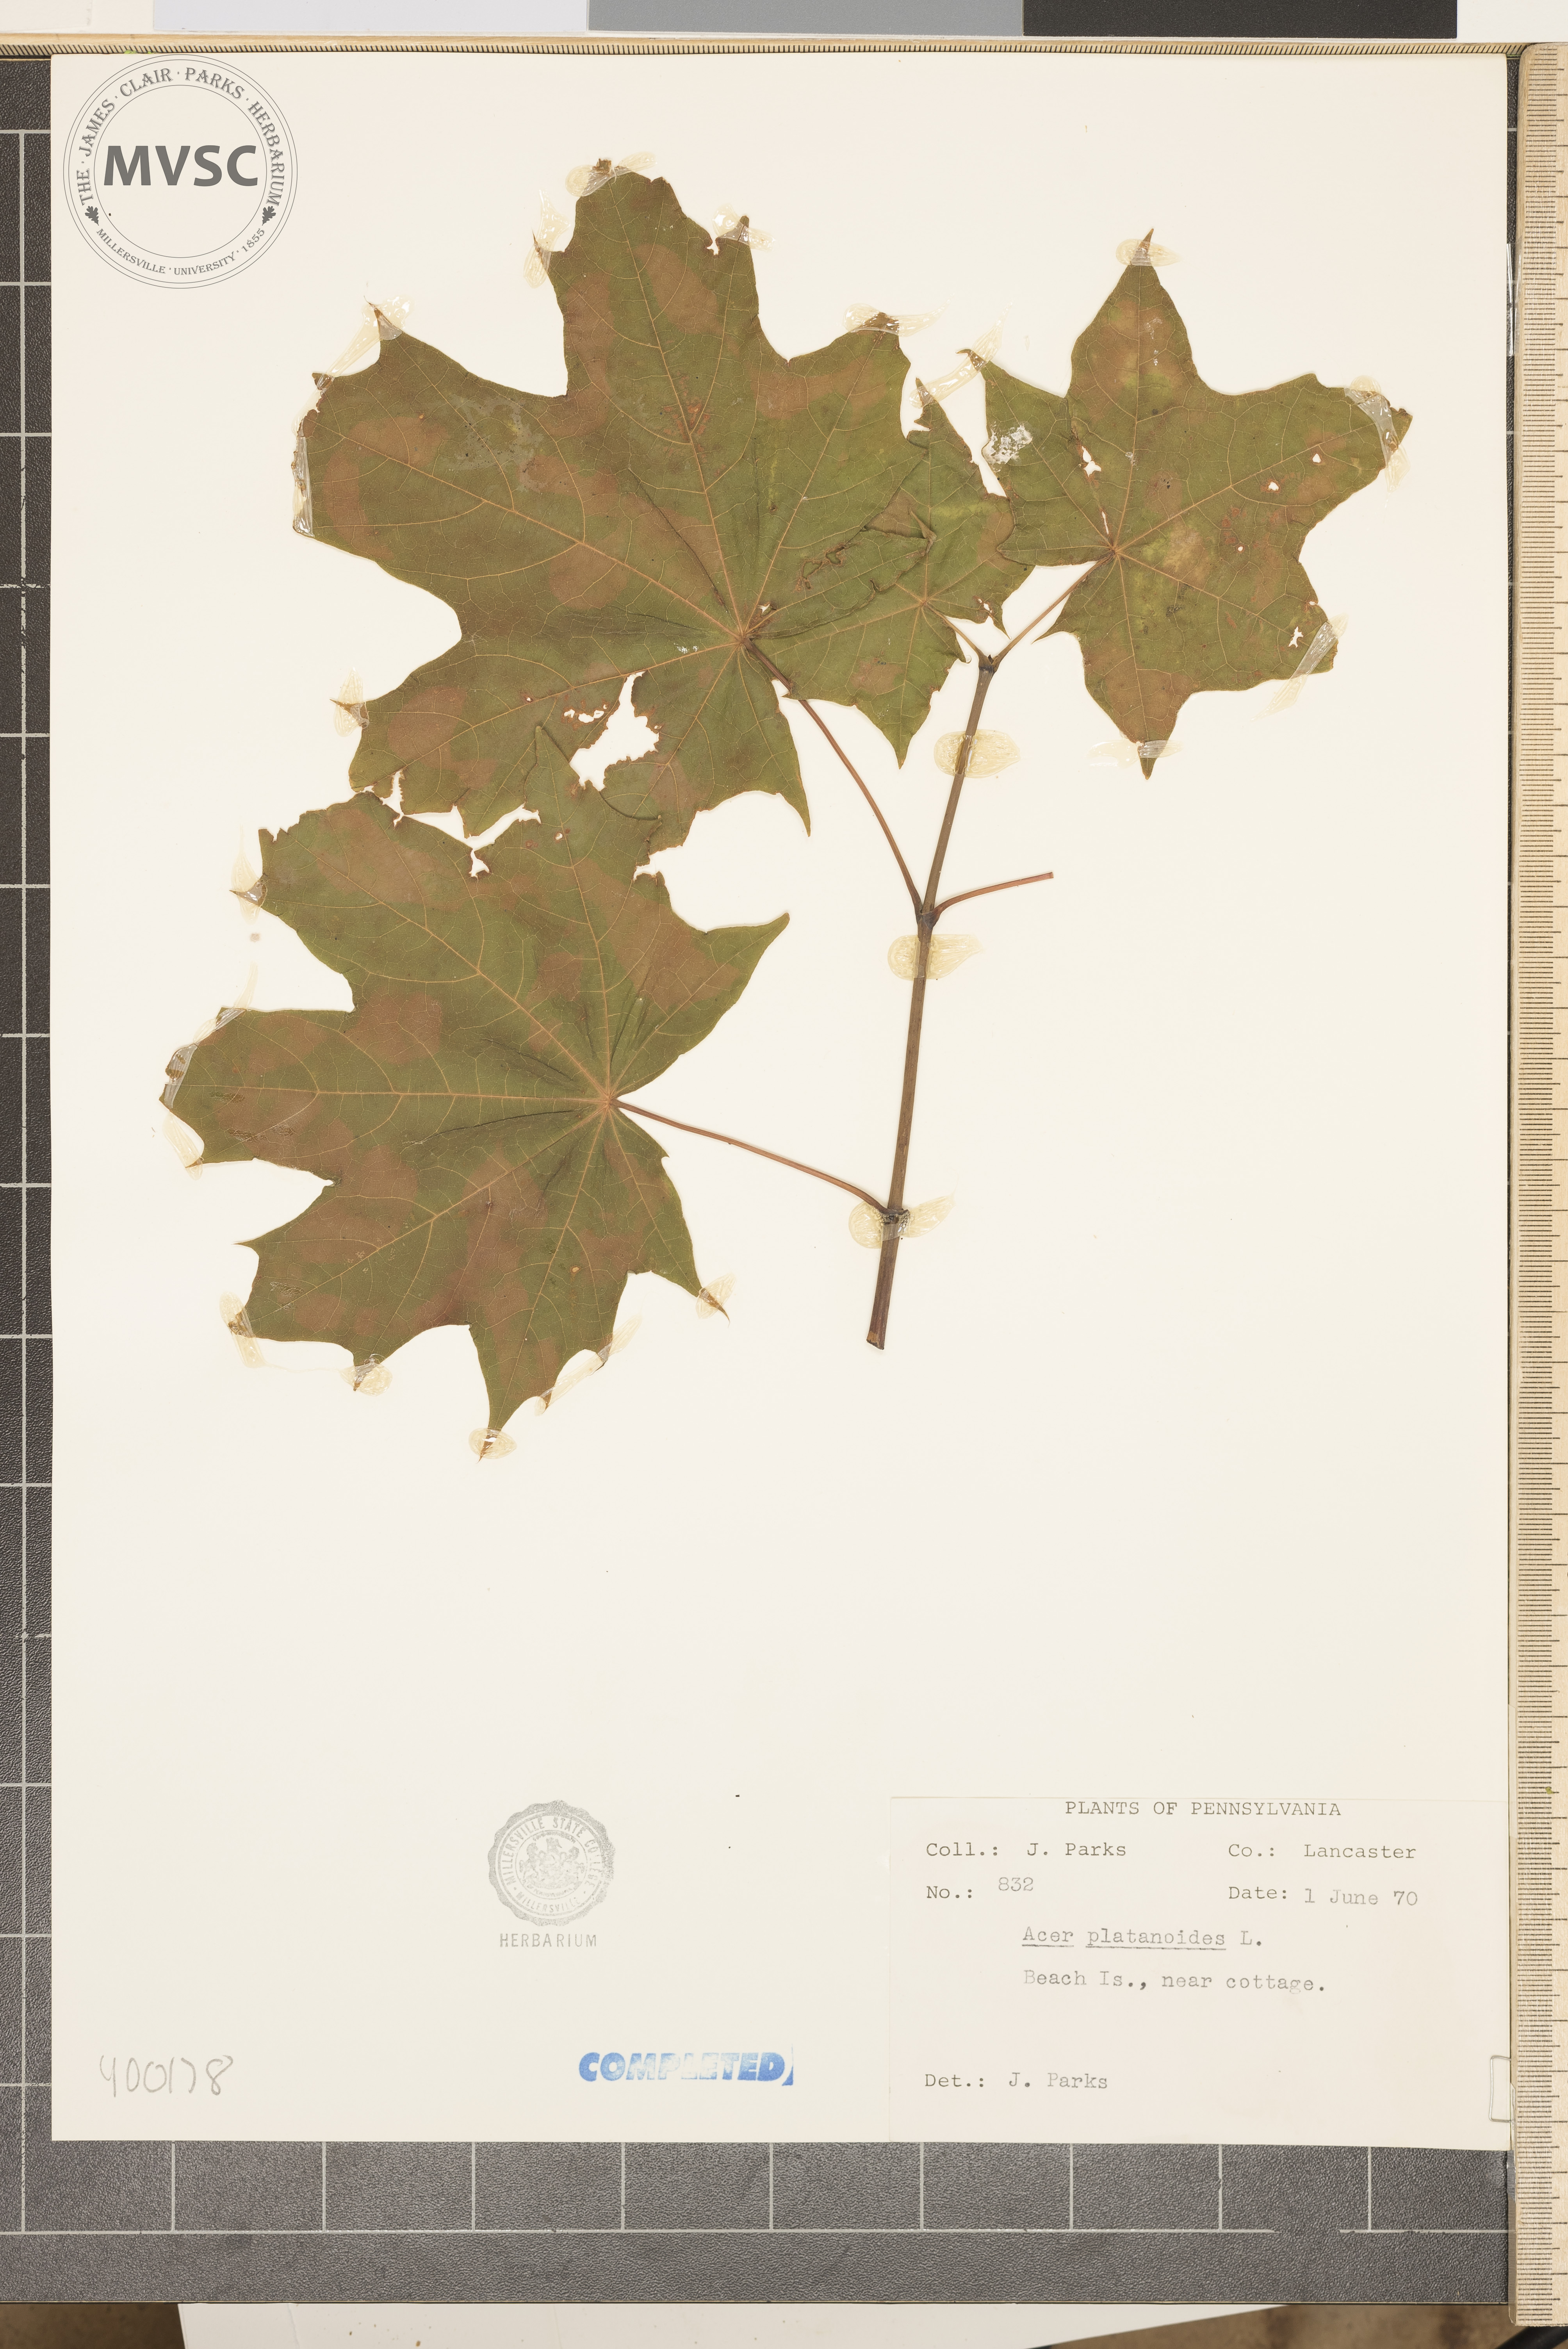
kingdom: Plantae
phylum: Tracheophyta
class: Magnoliopsida
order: Sapindales
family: Sapindaceae
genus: Acer
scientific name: Acer platanoides
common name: Norway maple
